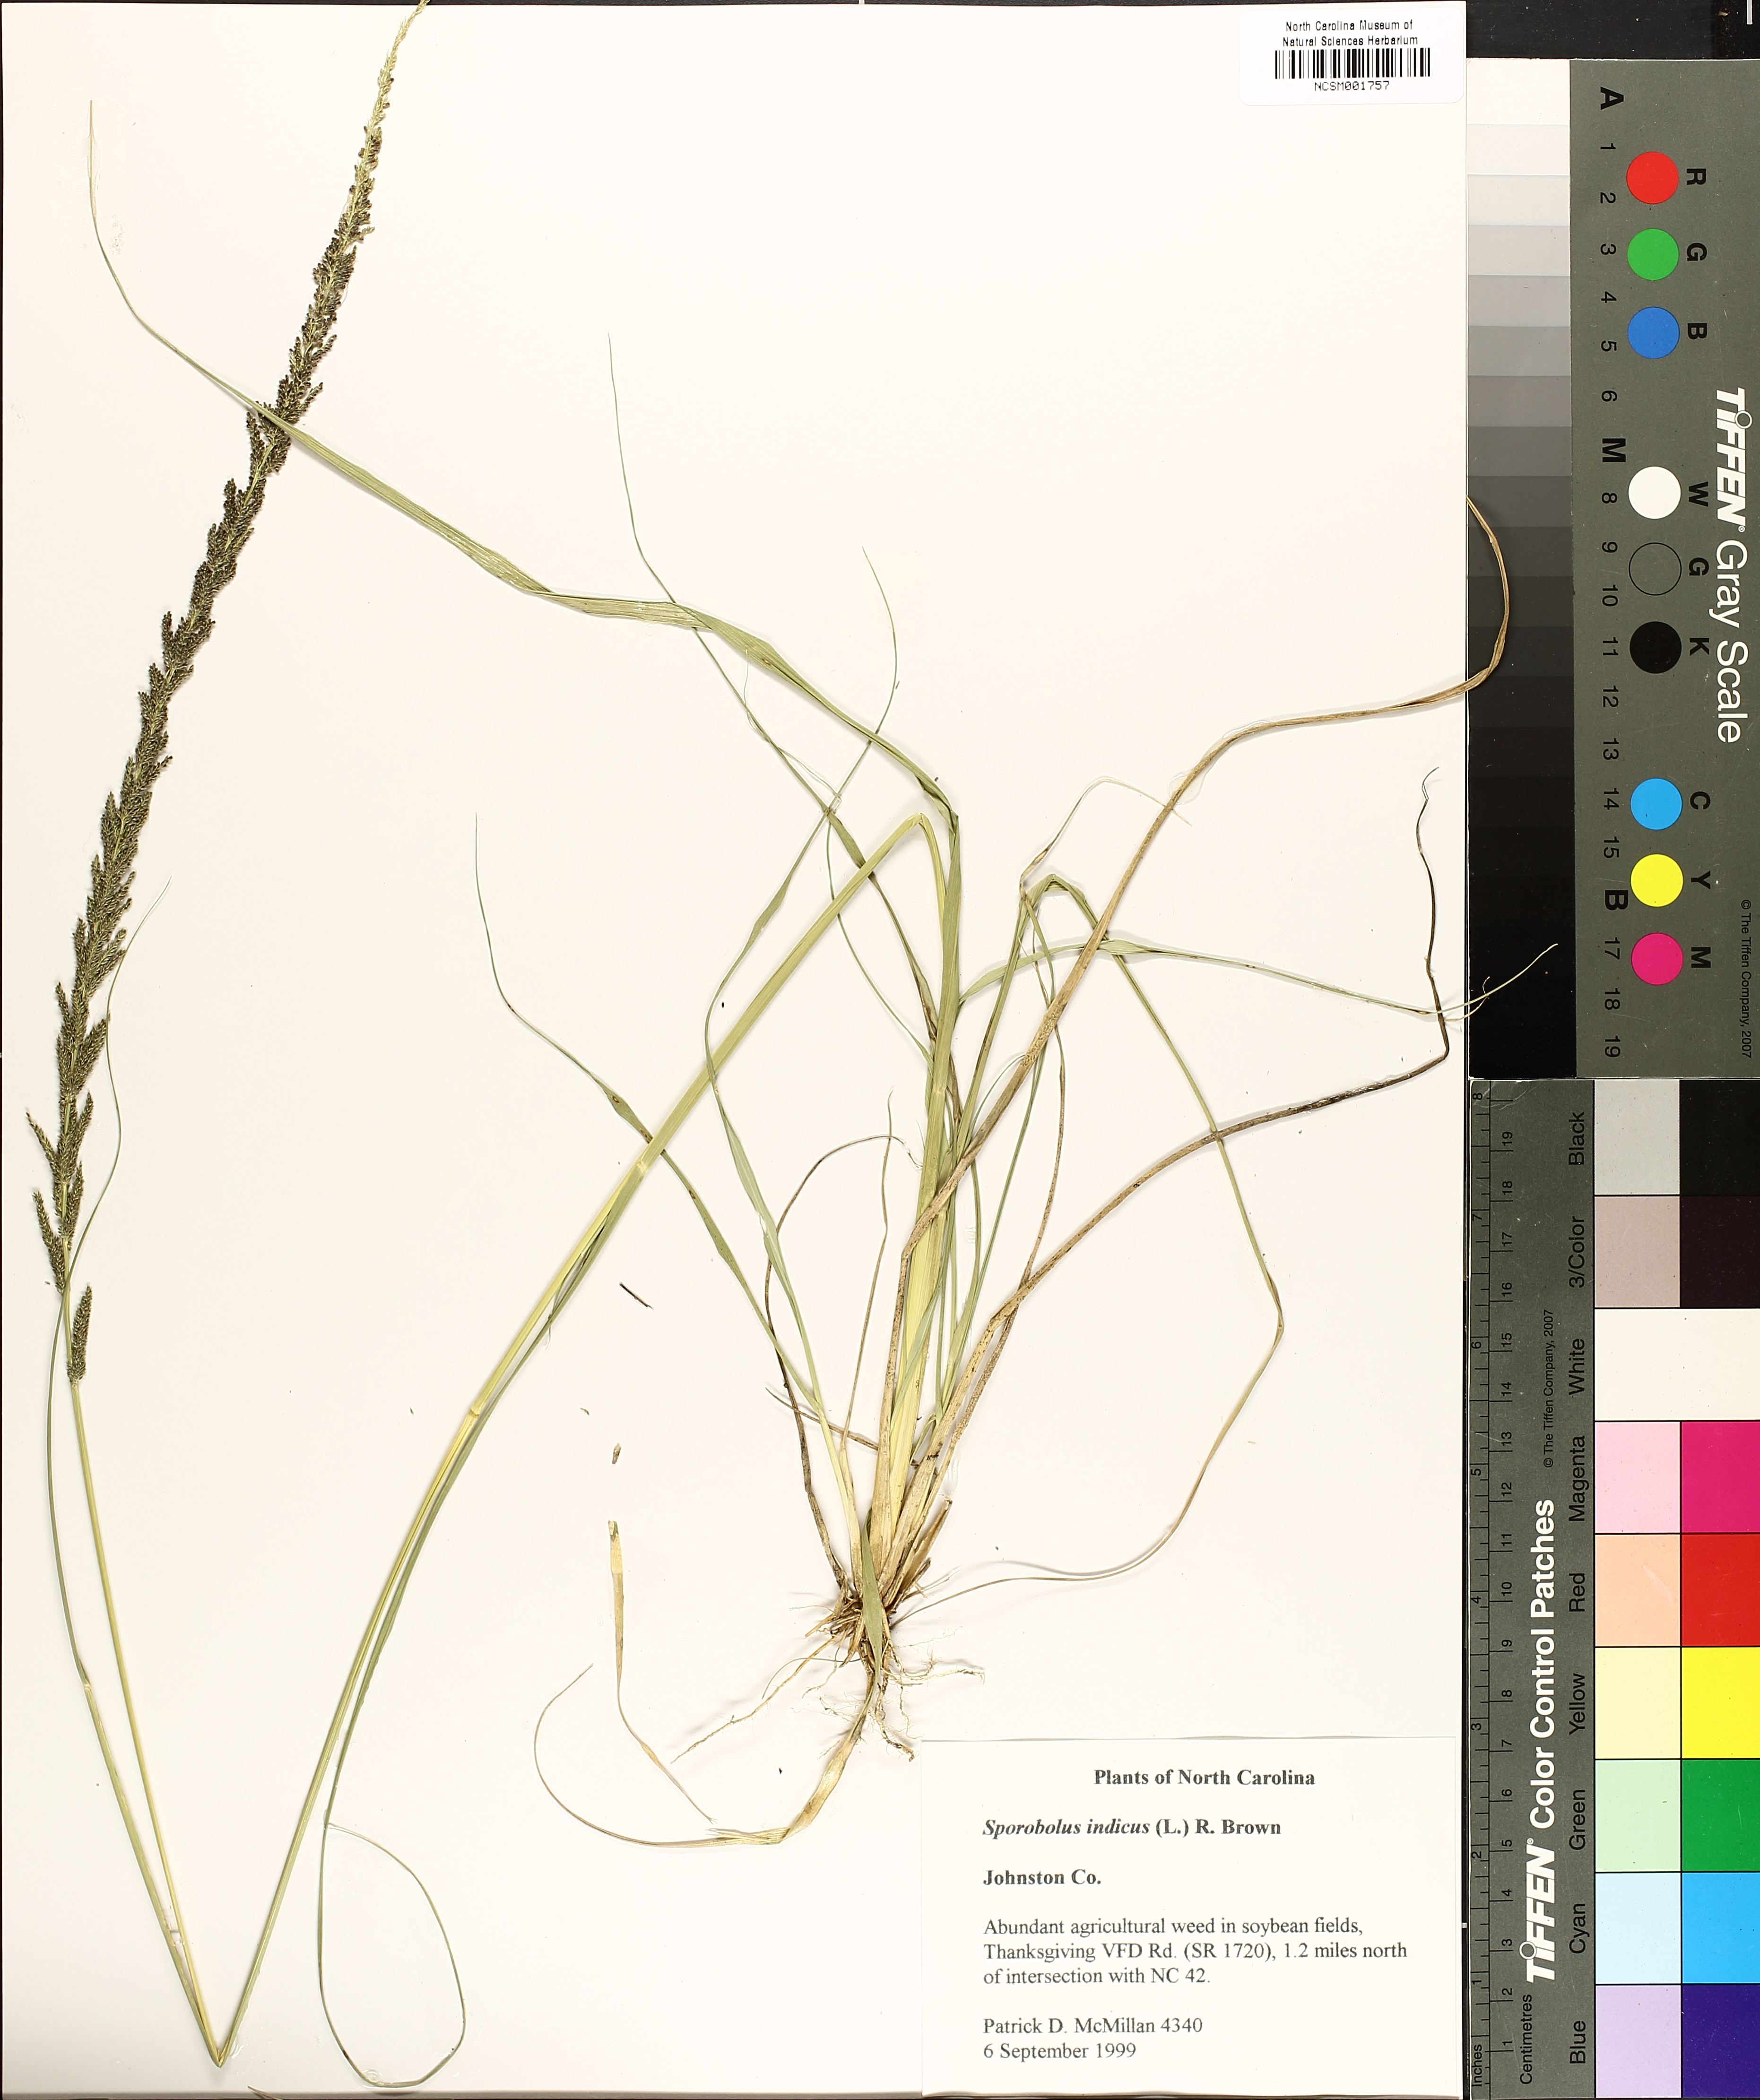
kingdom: Plantae
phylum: Tracheophyta
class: Liliopsida
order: Poales
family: Poaceae
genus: Sporobolus
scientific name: Sporobolus indicus
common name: Smut grass
